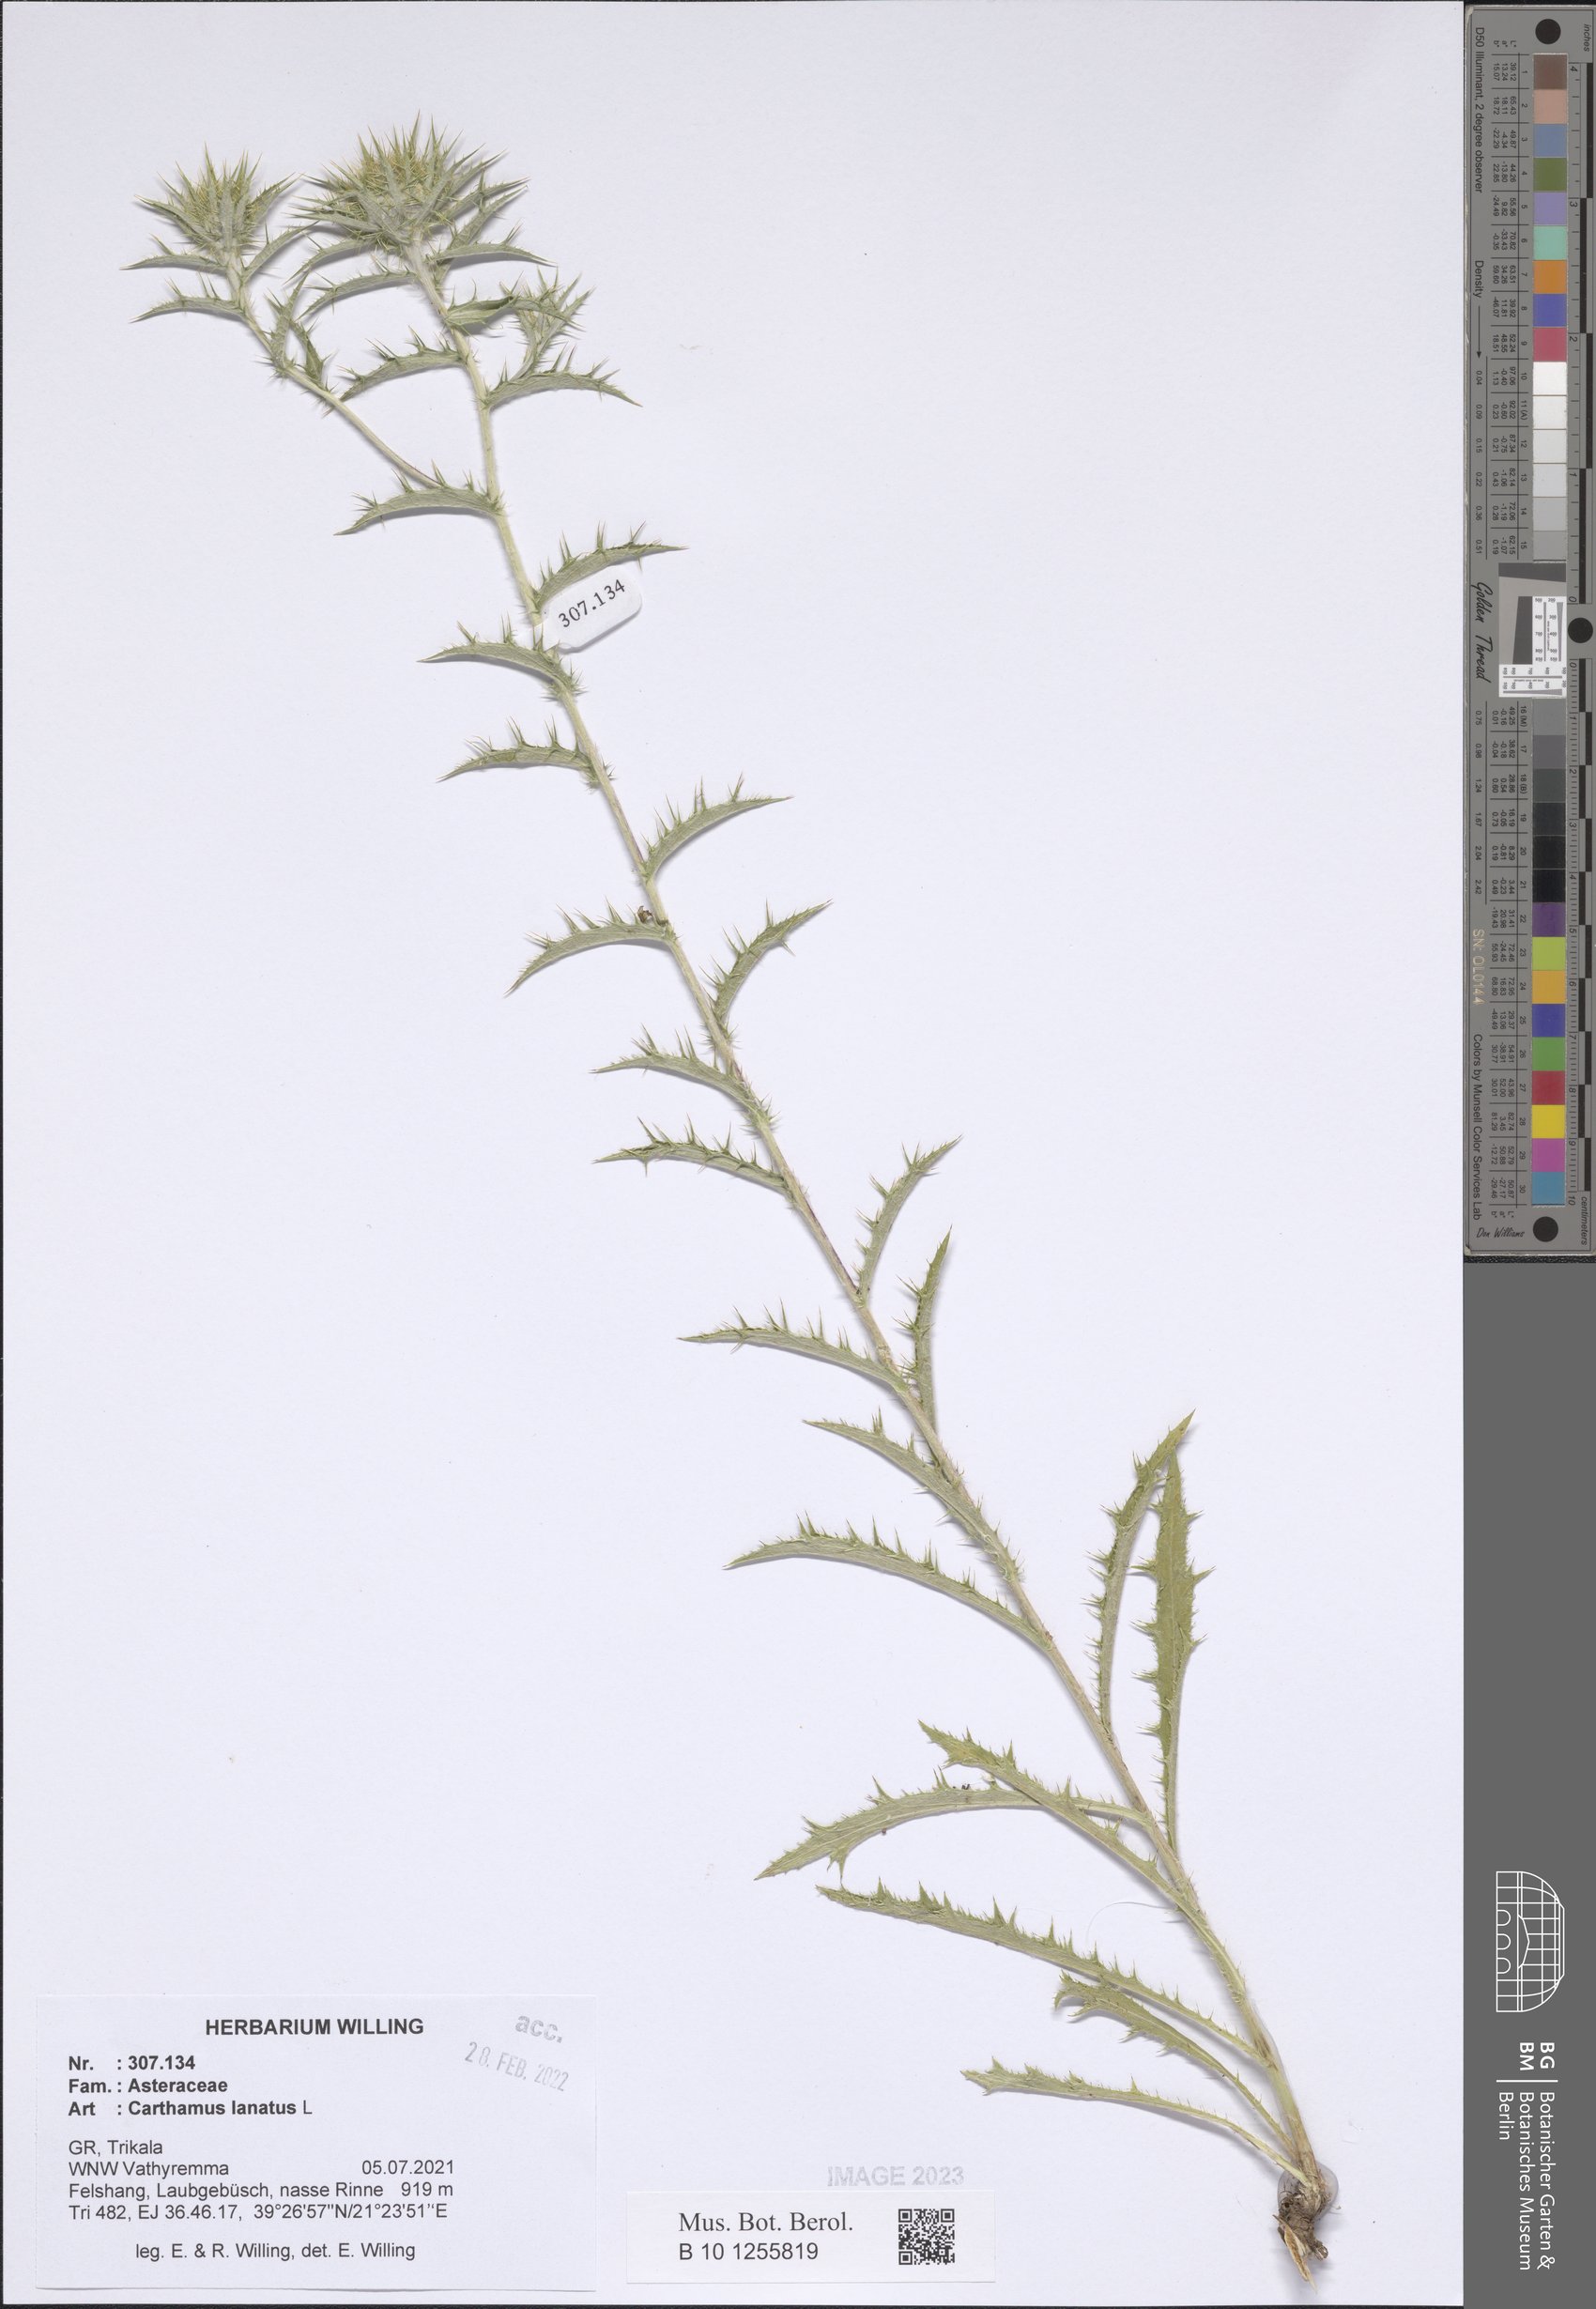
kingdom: Plantae
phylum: Tracheophyta
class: Magnoliopsida
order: Asterales
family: Asteraceae
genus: Carthamus
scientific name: Carthamus lanatus
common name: Downy safflower
